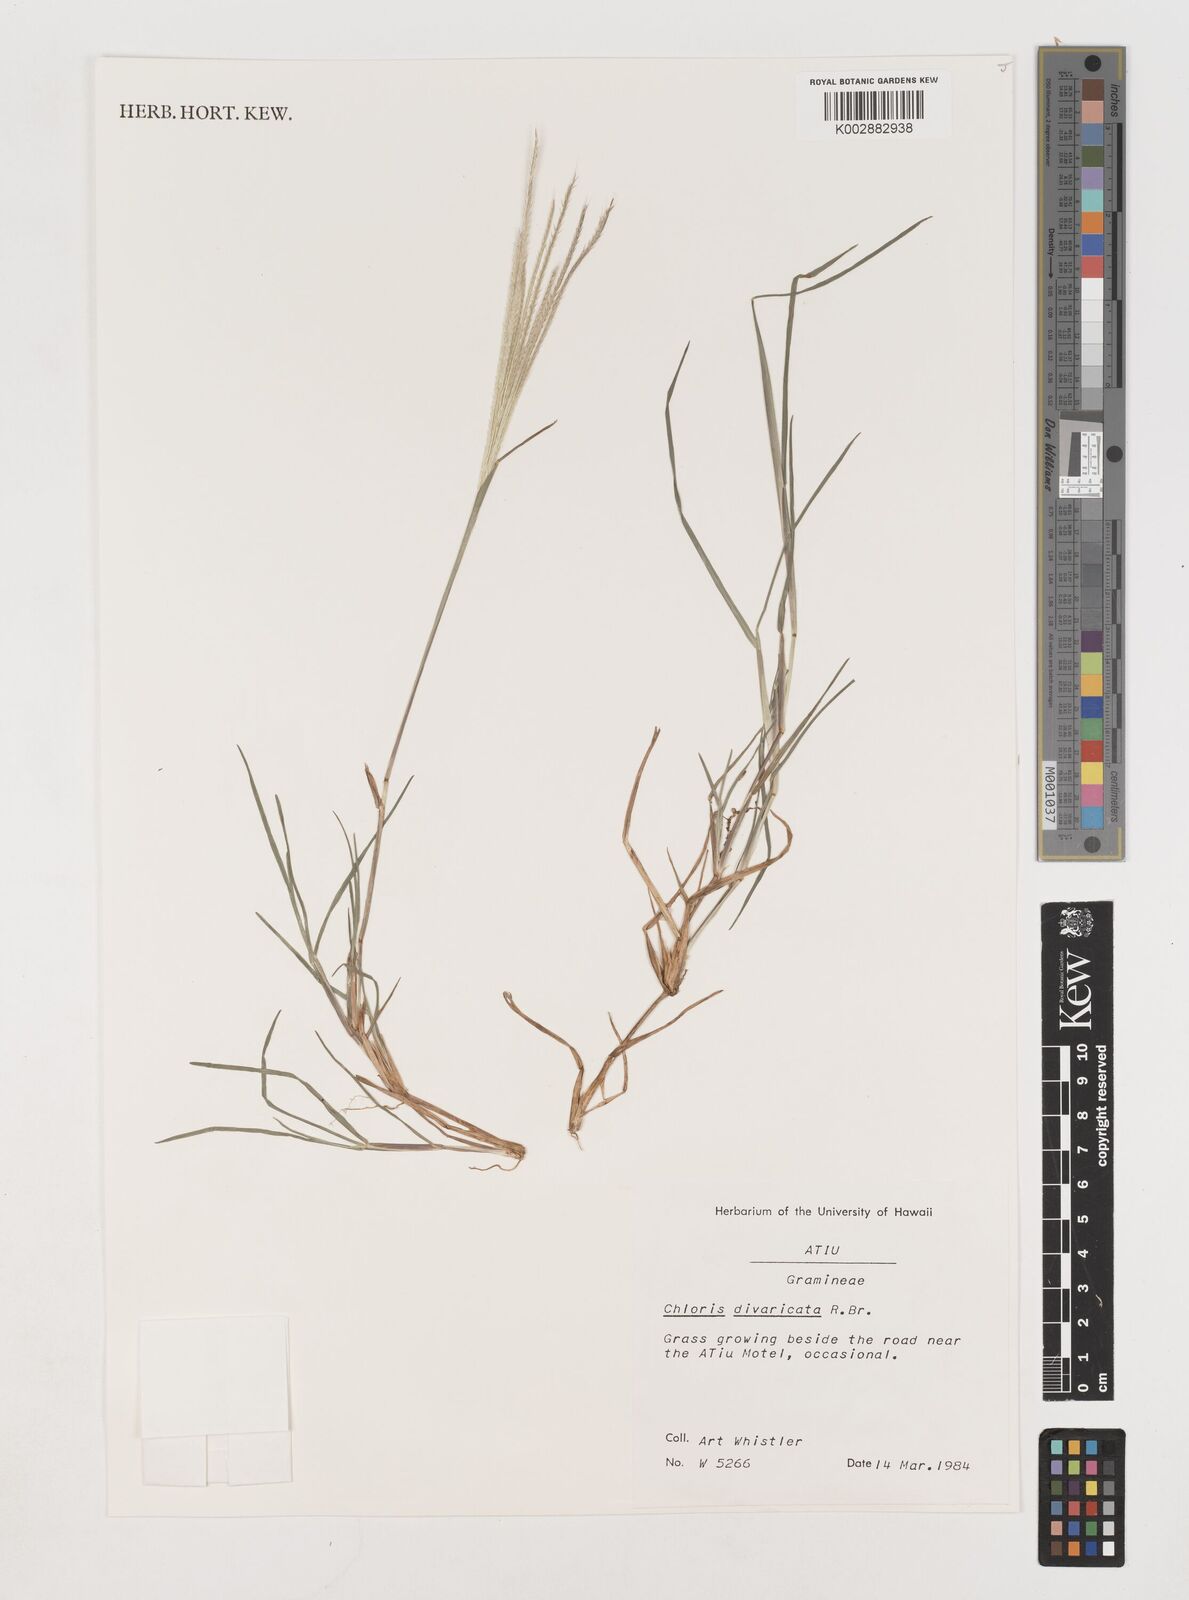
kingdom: Plantae
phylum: Tracheophyta
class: Liliopsida
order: Poales
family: Poaceae
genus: Chloris
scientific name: Chloris divaricata
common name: Spreading windmill grass
